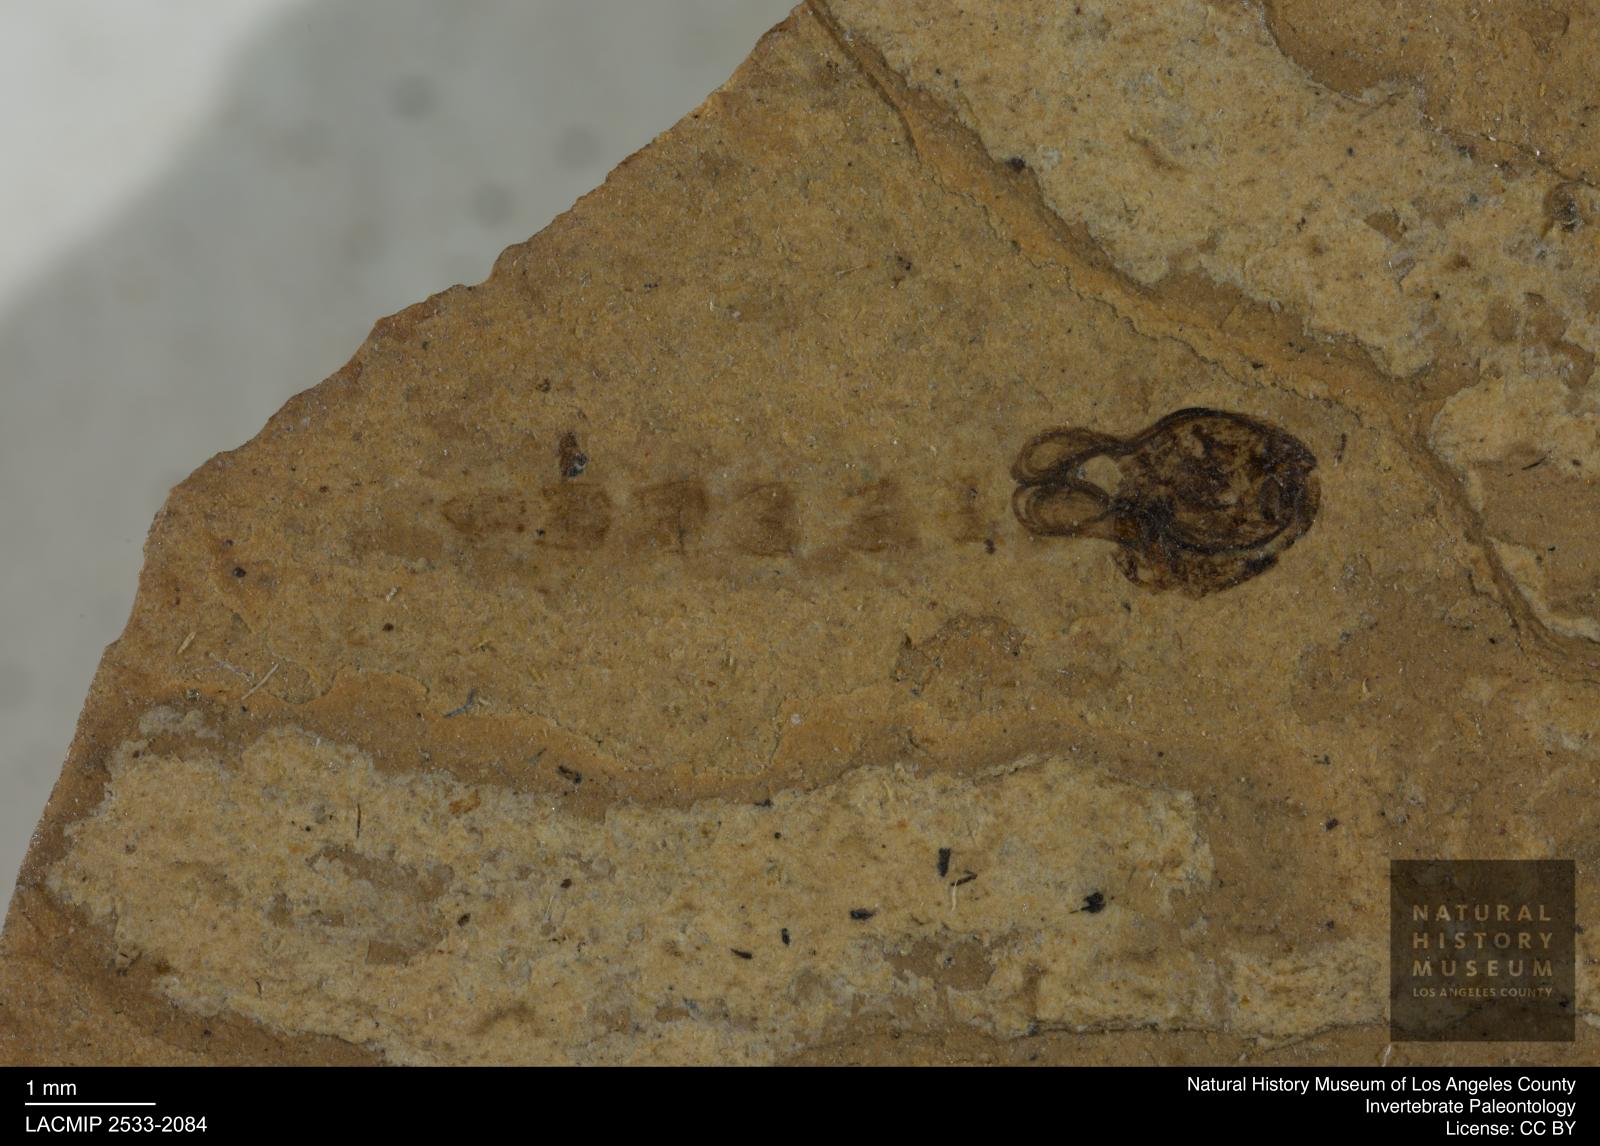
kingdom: Animalia
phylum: Arthropoda
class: Insecta
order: Diptera
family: Chironomidae
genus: Pelopiina
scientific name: Pelopiina
